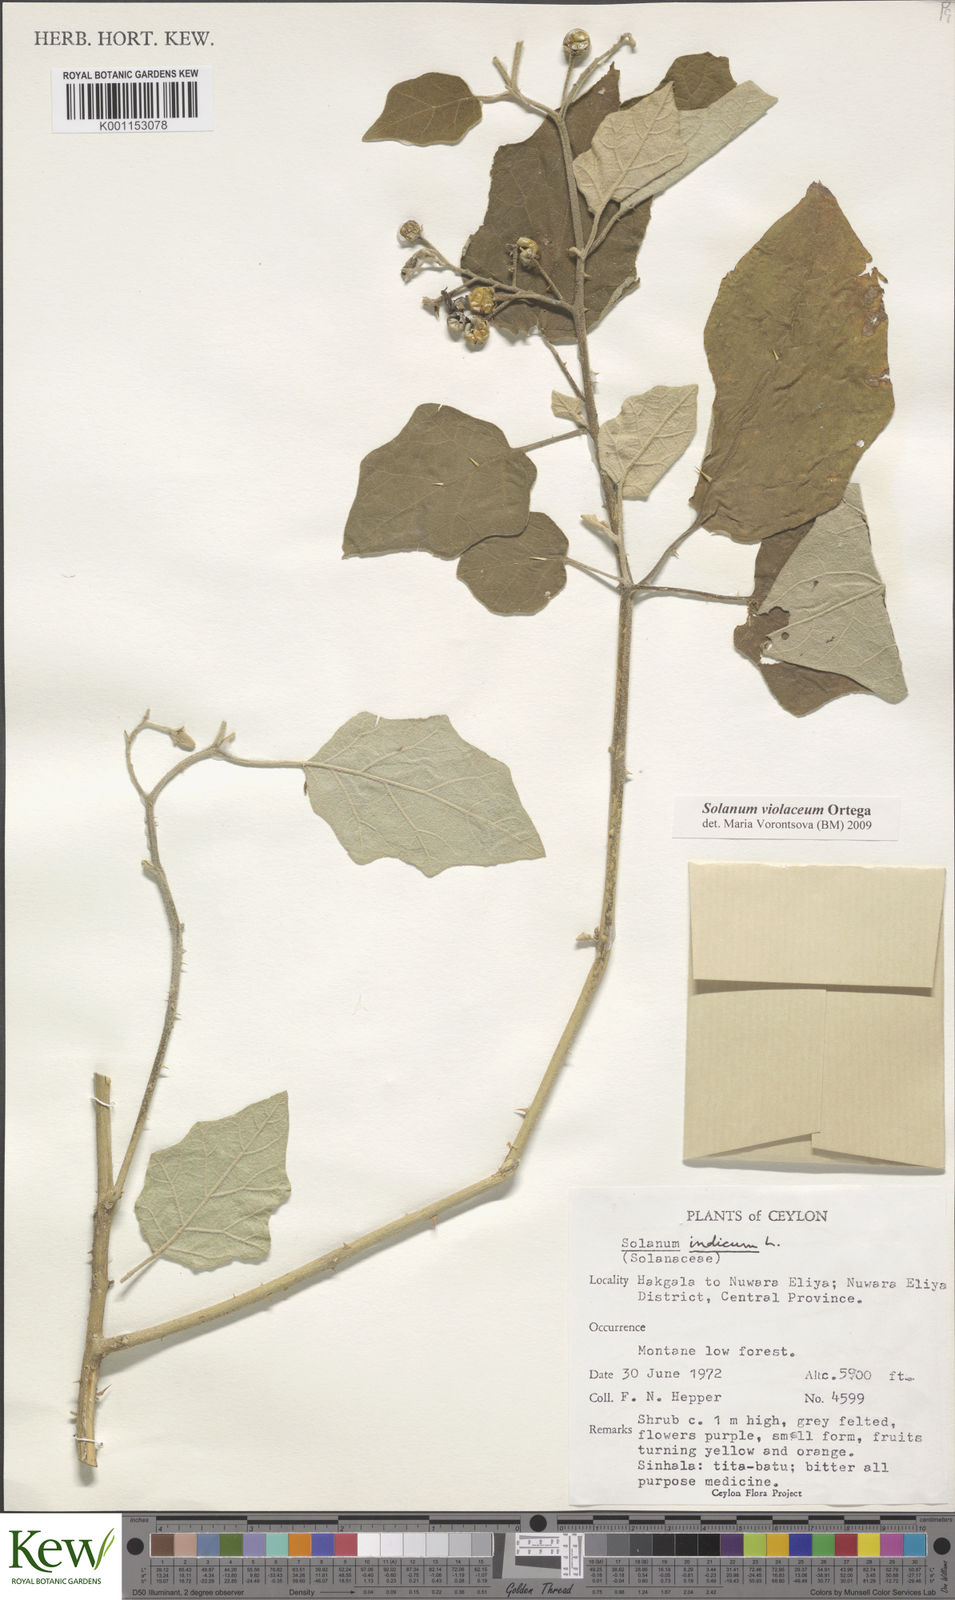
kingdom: Plantae
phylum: Tracheophyta
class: Magnoliopsida
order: Solanales
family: Solanaceae
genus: Solanum
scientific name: Solanum violaceum
